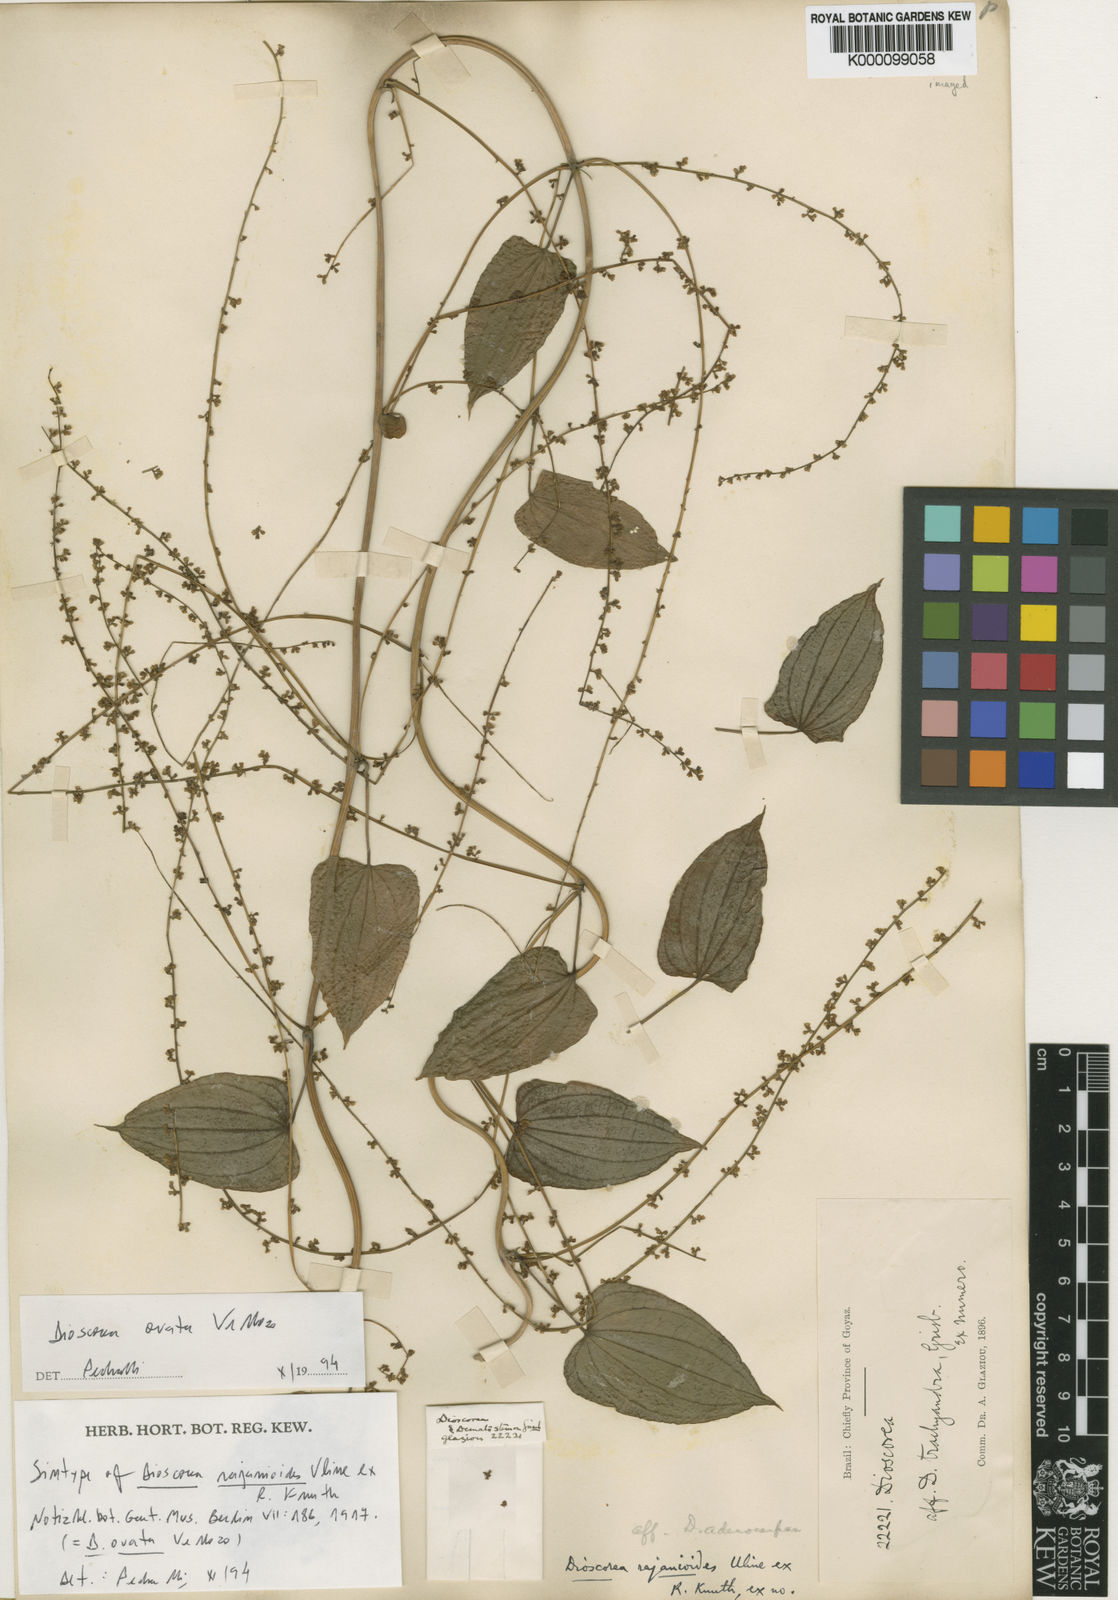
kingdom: Plantae
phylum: Tracheophyta
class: Liliopsida
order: Dioscoreales
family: Dioscoreaceae
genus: Dioscorea
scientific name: Dioscorea chondrocarpa
